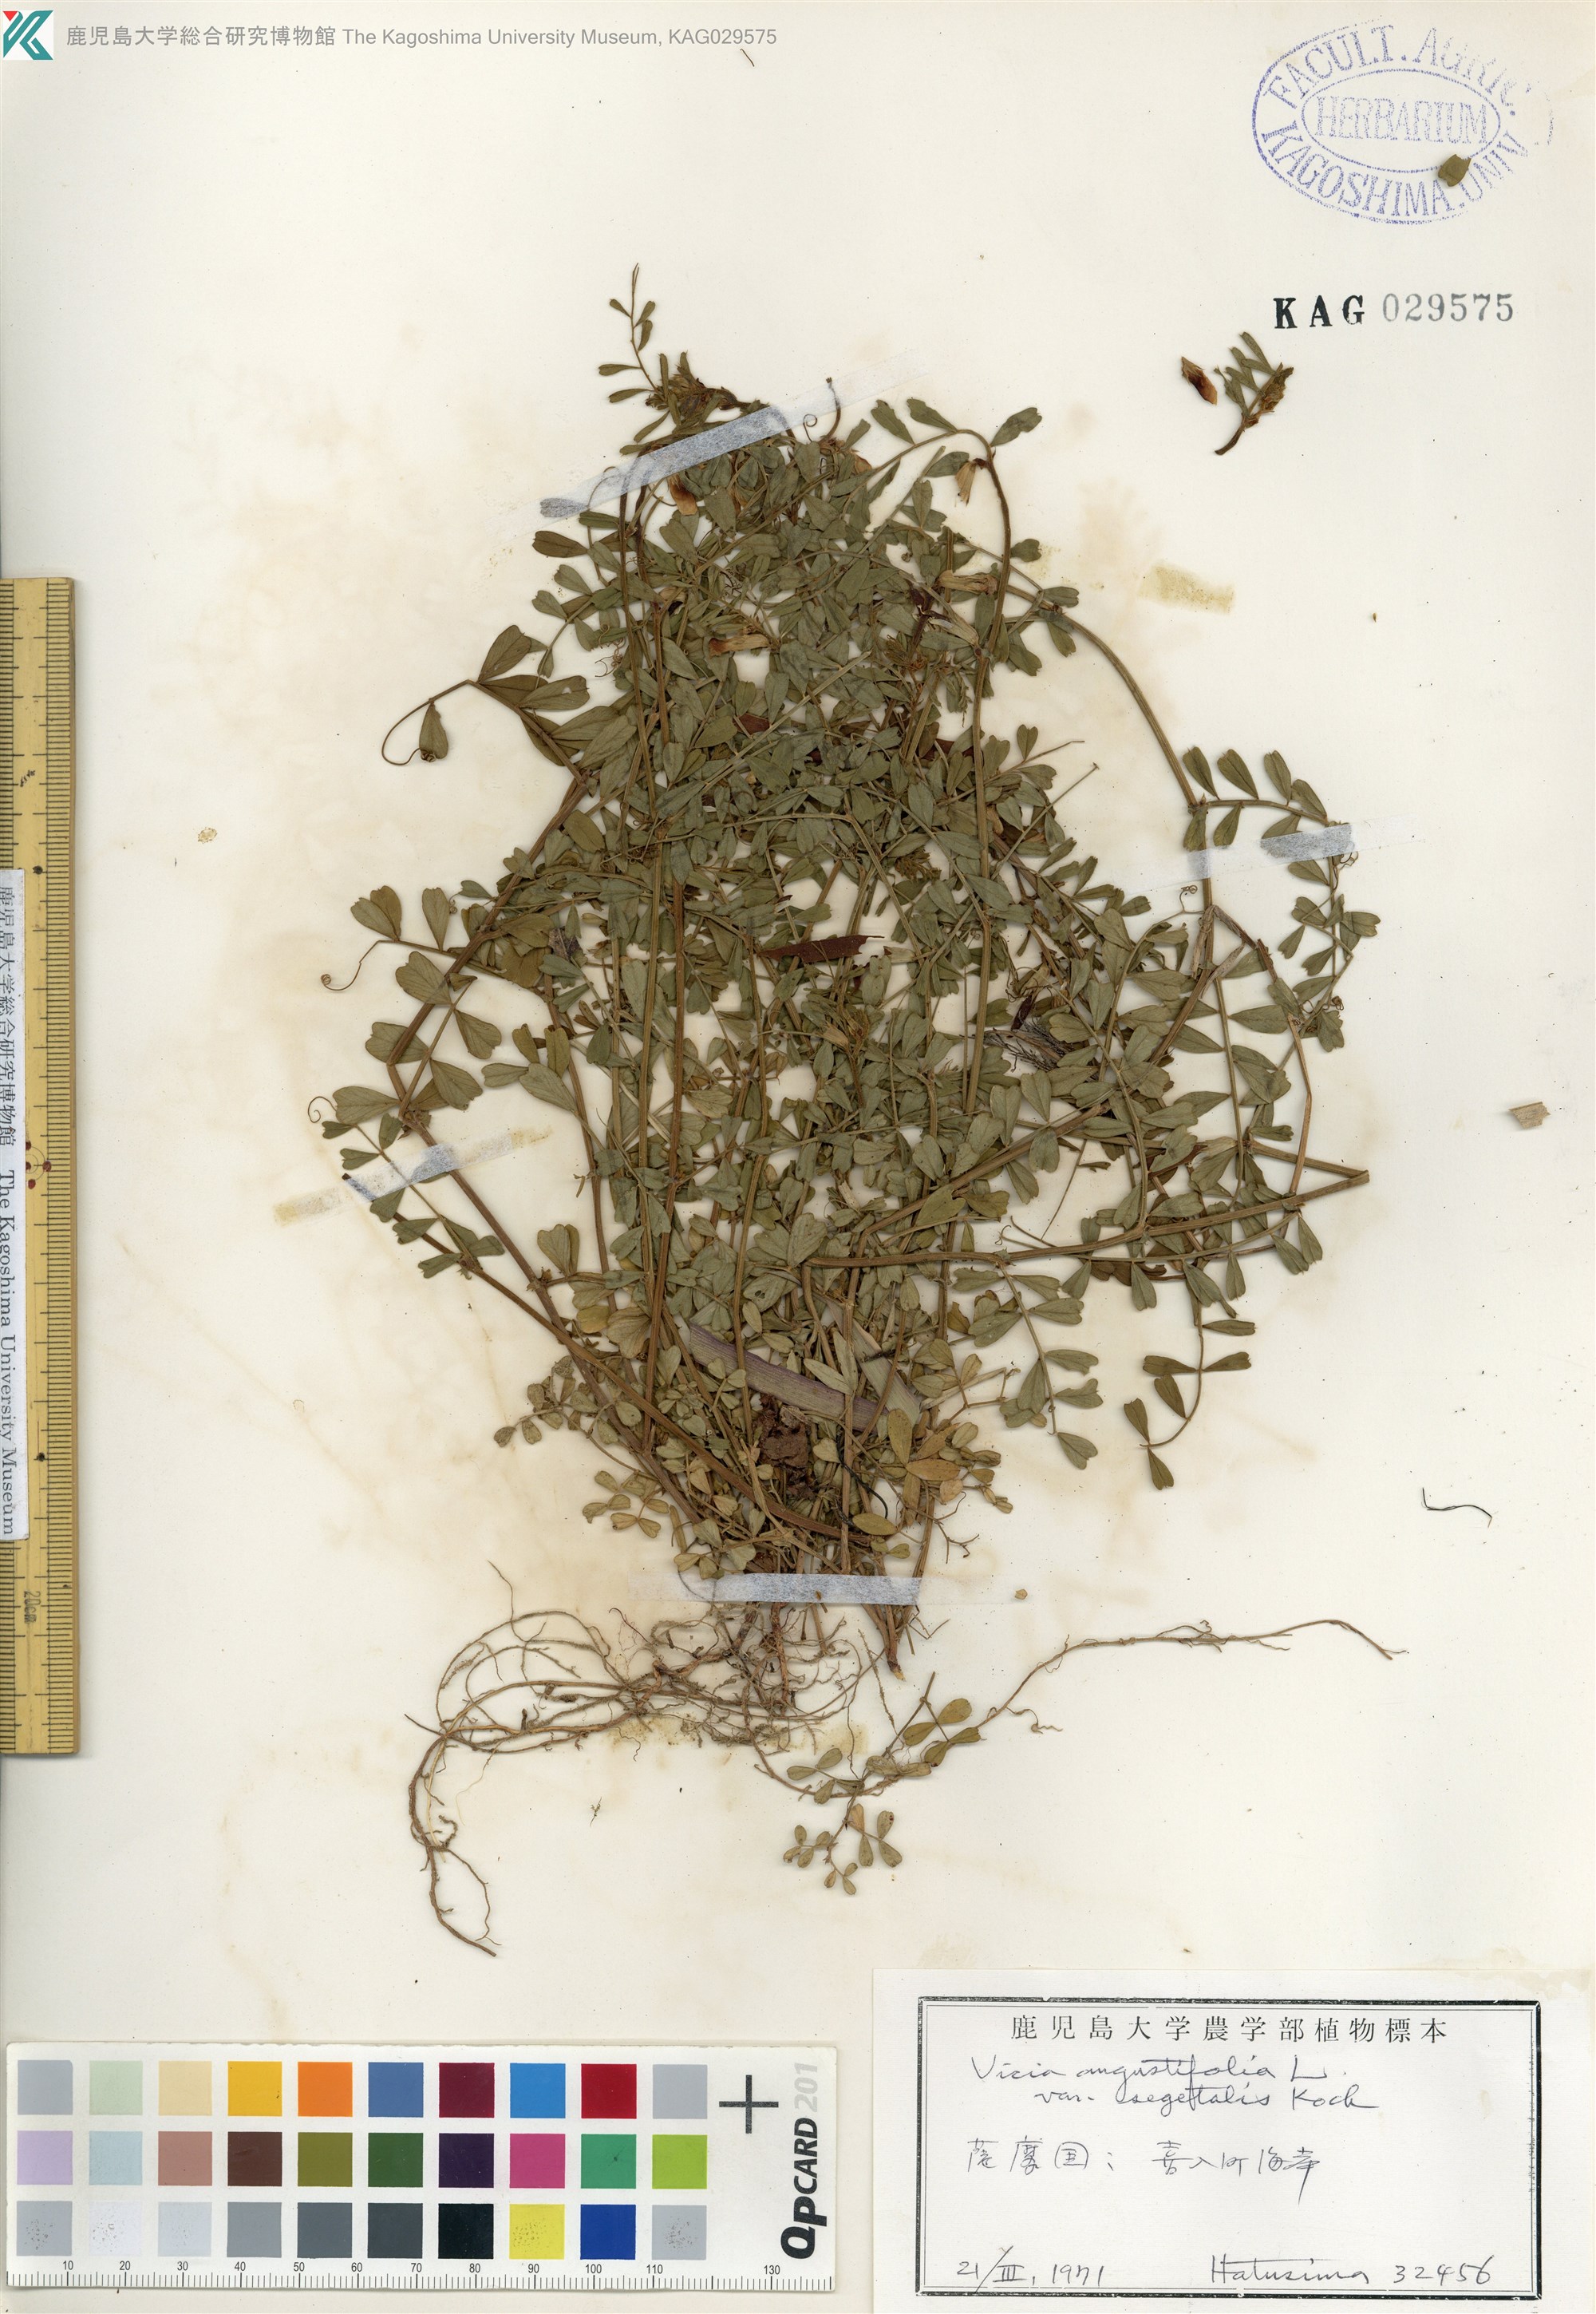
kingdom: Plantae
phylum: Tracheophyta
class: Magnoliopsida
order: Fabales
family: Fabaceae
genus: Vicia
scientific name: Vicia sativa
